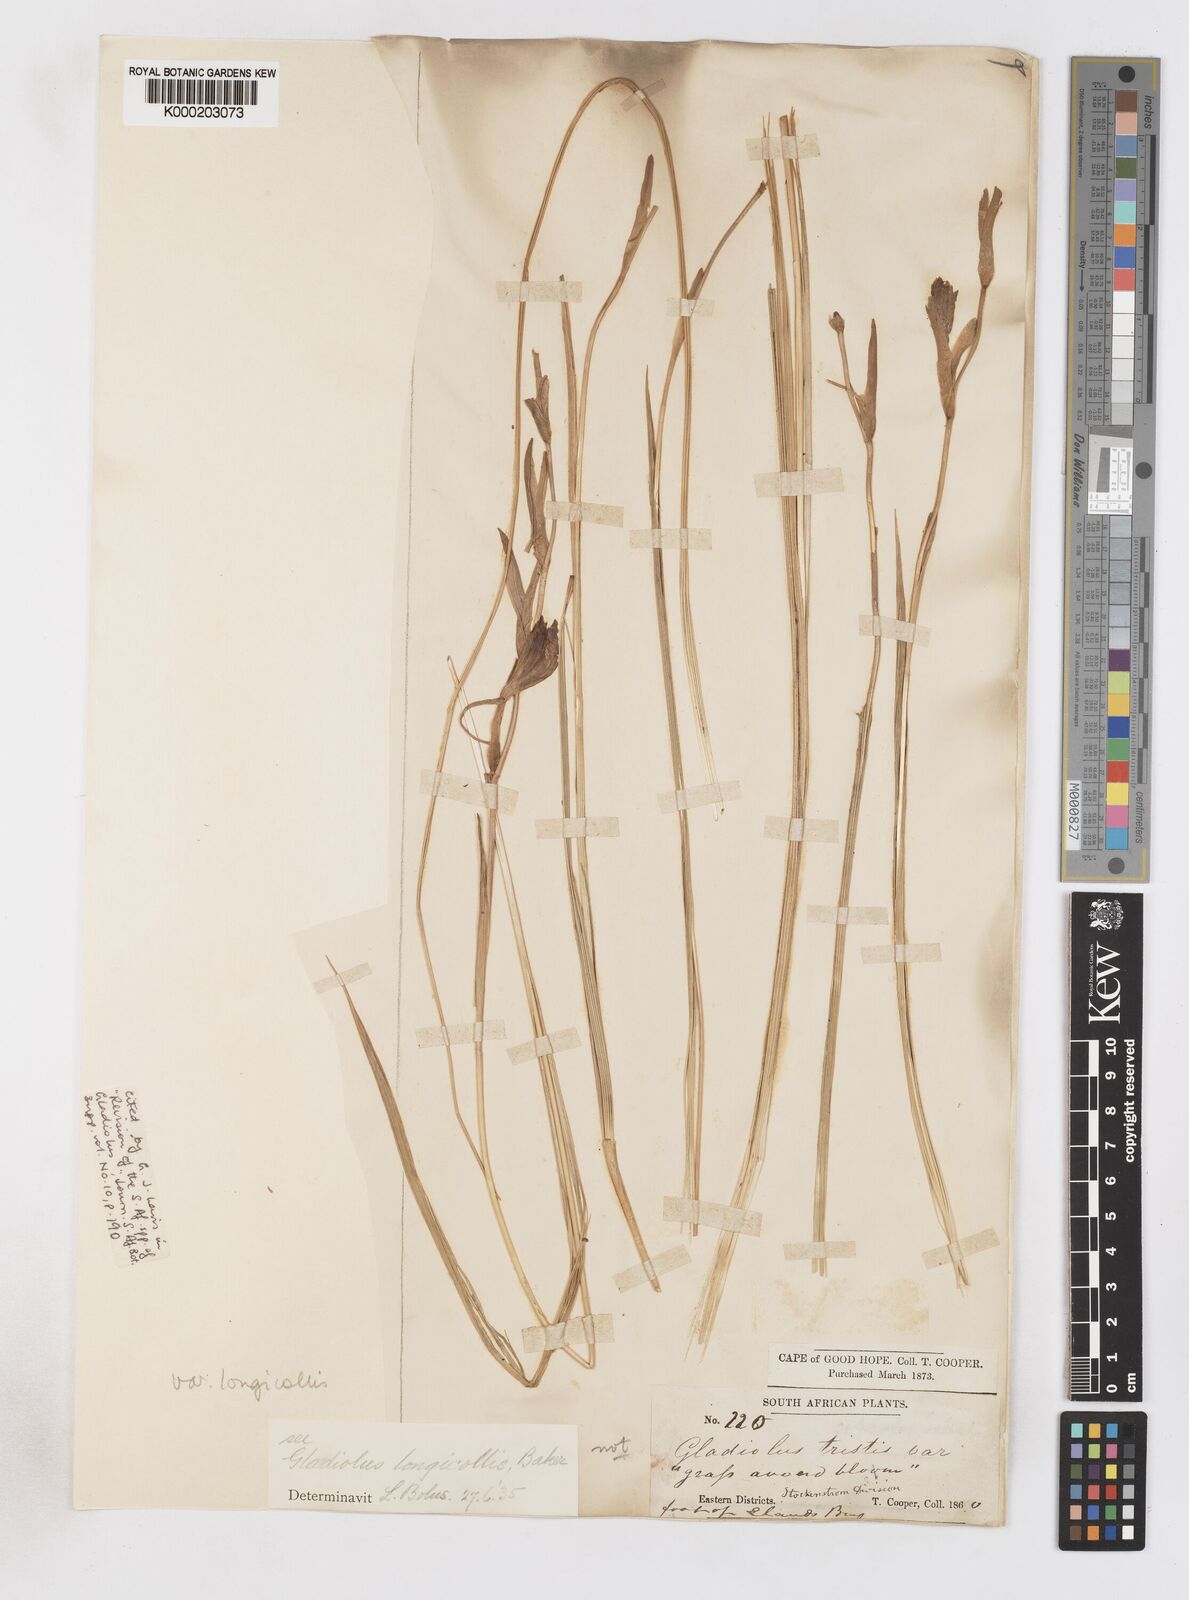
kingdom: Plantae
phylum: Tracheophyta
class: Liliopsida
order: Asparagales
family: Iridaceae
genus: Gladiolus
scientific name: Gladiolus longicollis
